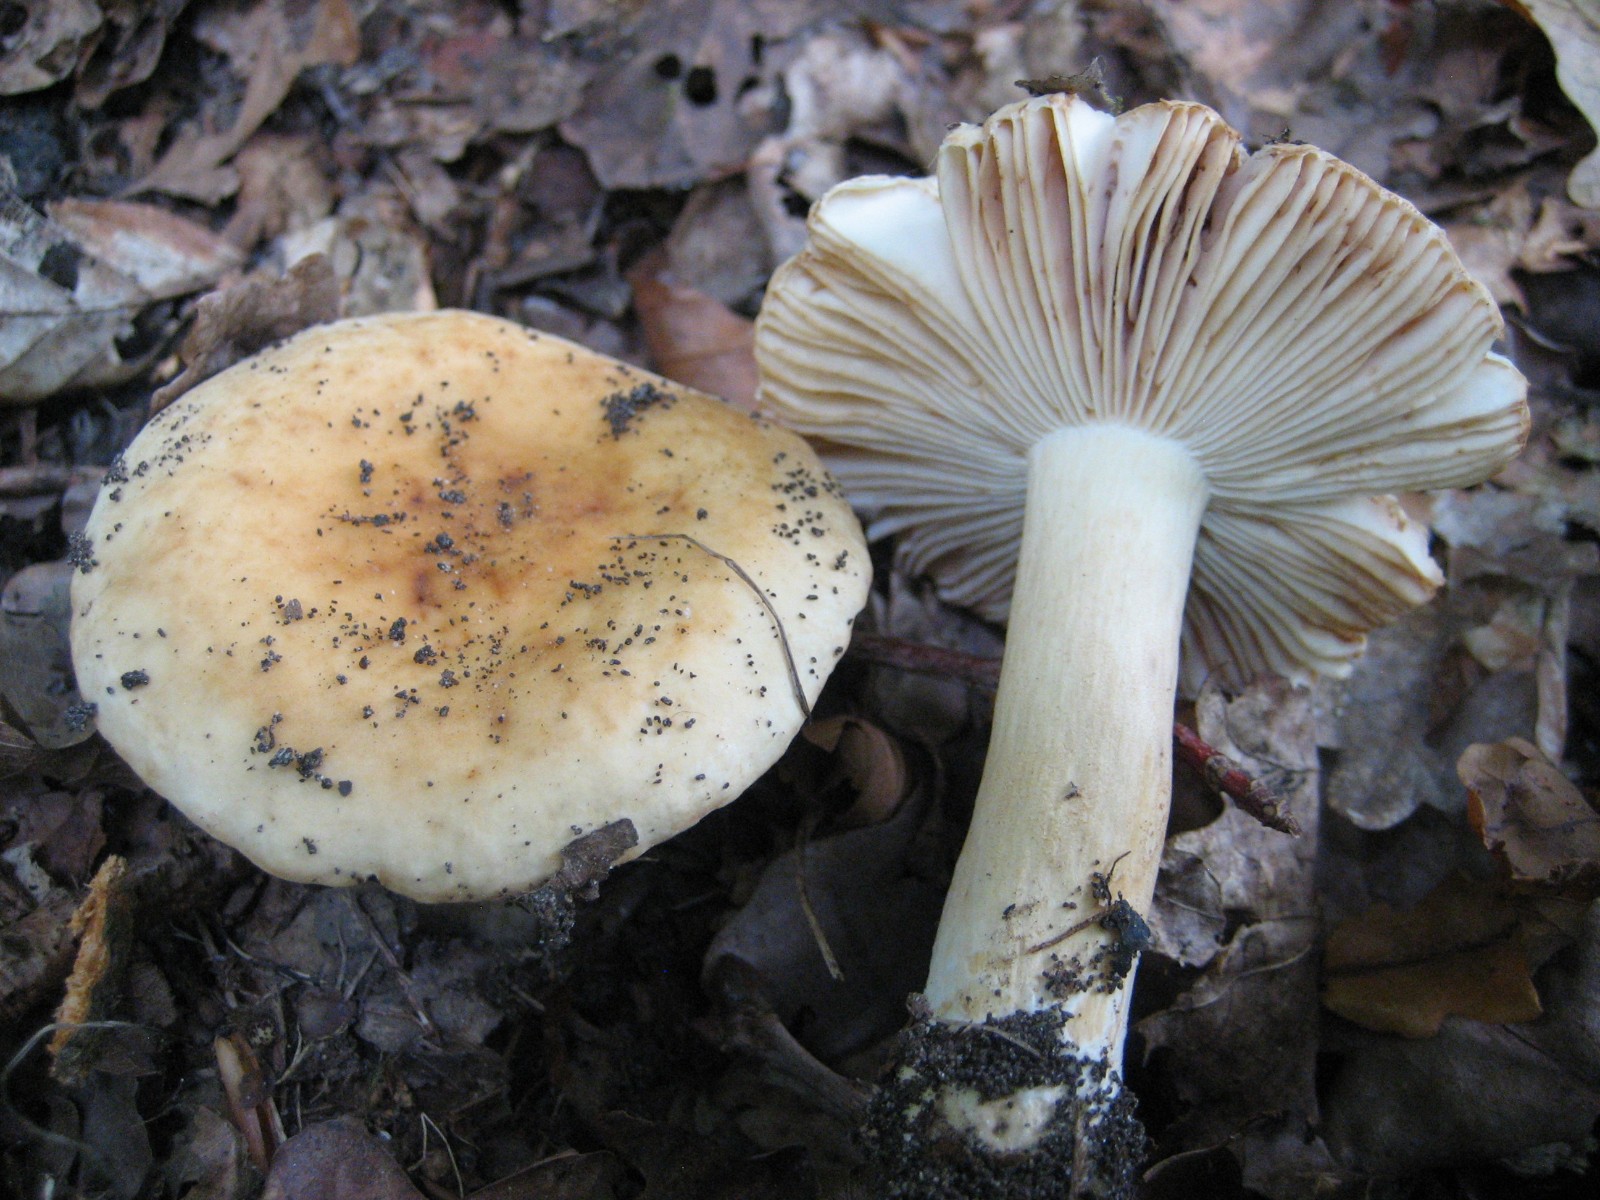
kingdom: Fungi
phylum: Basidiomycota
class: Agaricomycetes
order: Russulales
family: Russulaceae
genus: Russula
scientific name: Russula fellea
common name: galde-skørhat
